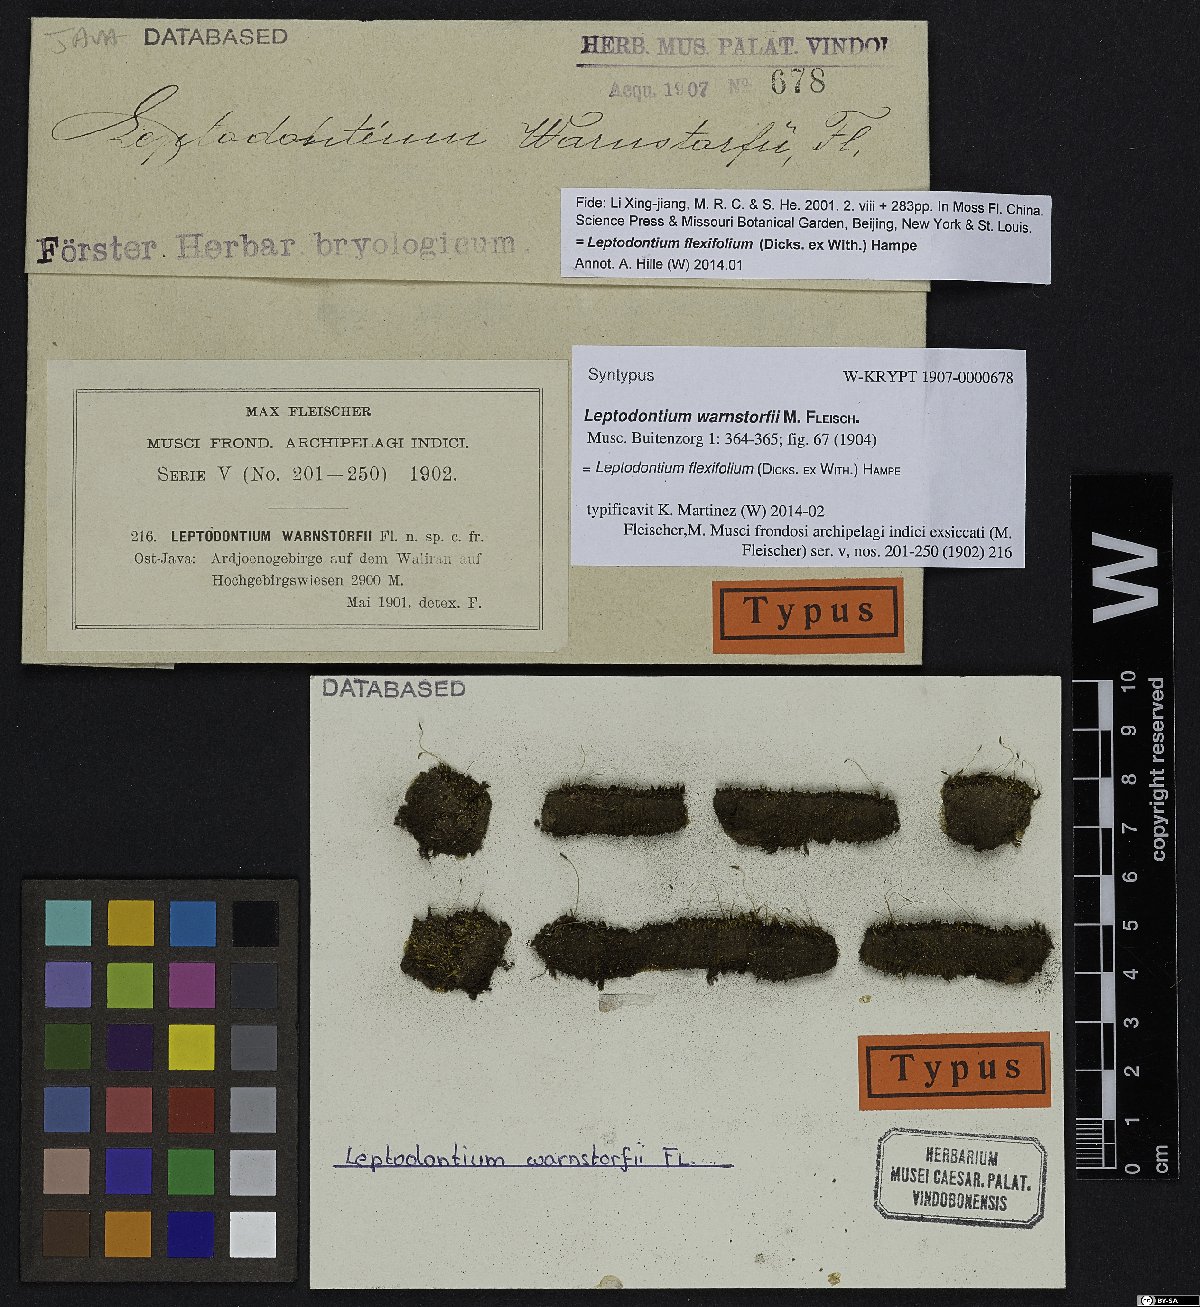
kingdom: Plantae
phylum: Bryophyta
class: Bryopsida
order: Pottiales
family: Pottiaceae
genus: Leptodontium
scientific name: Leptodontium flexifolium
